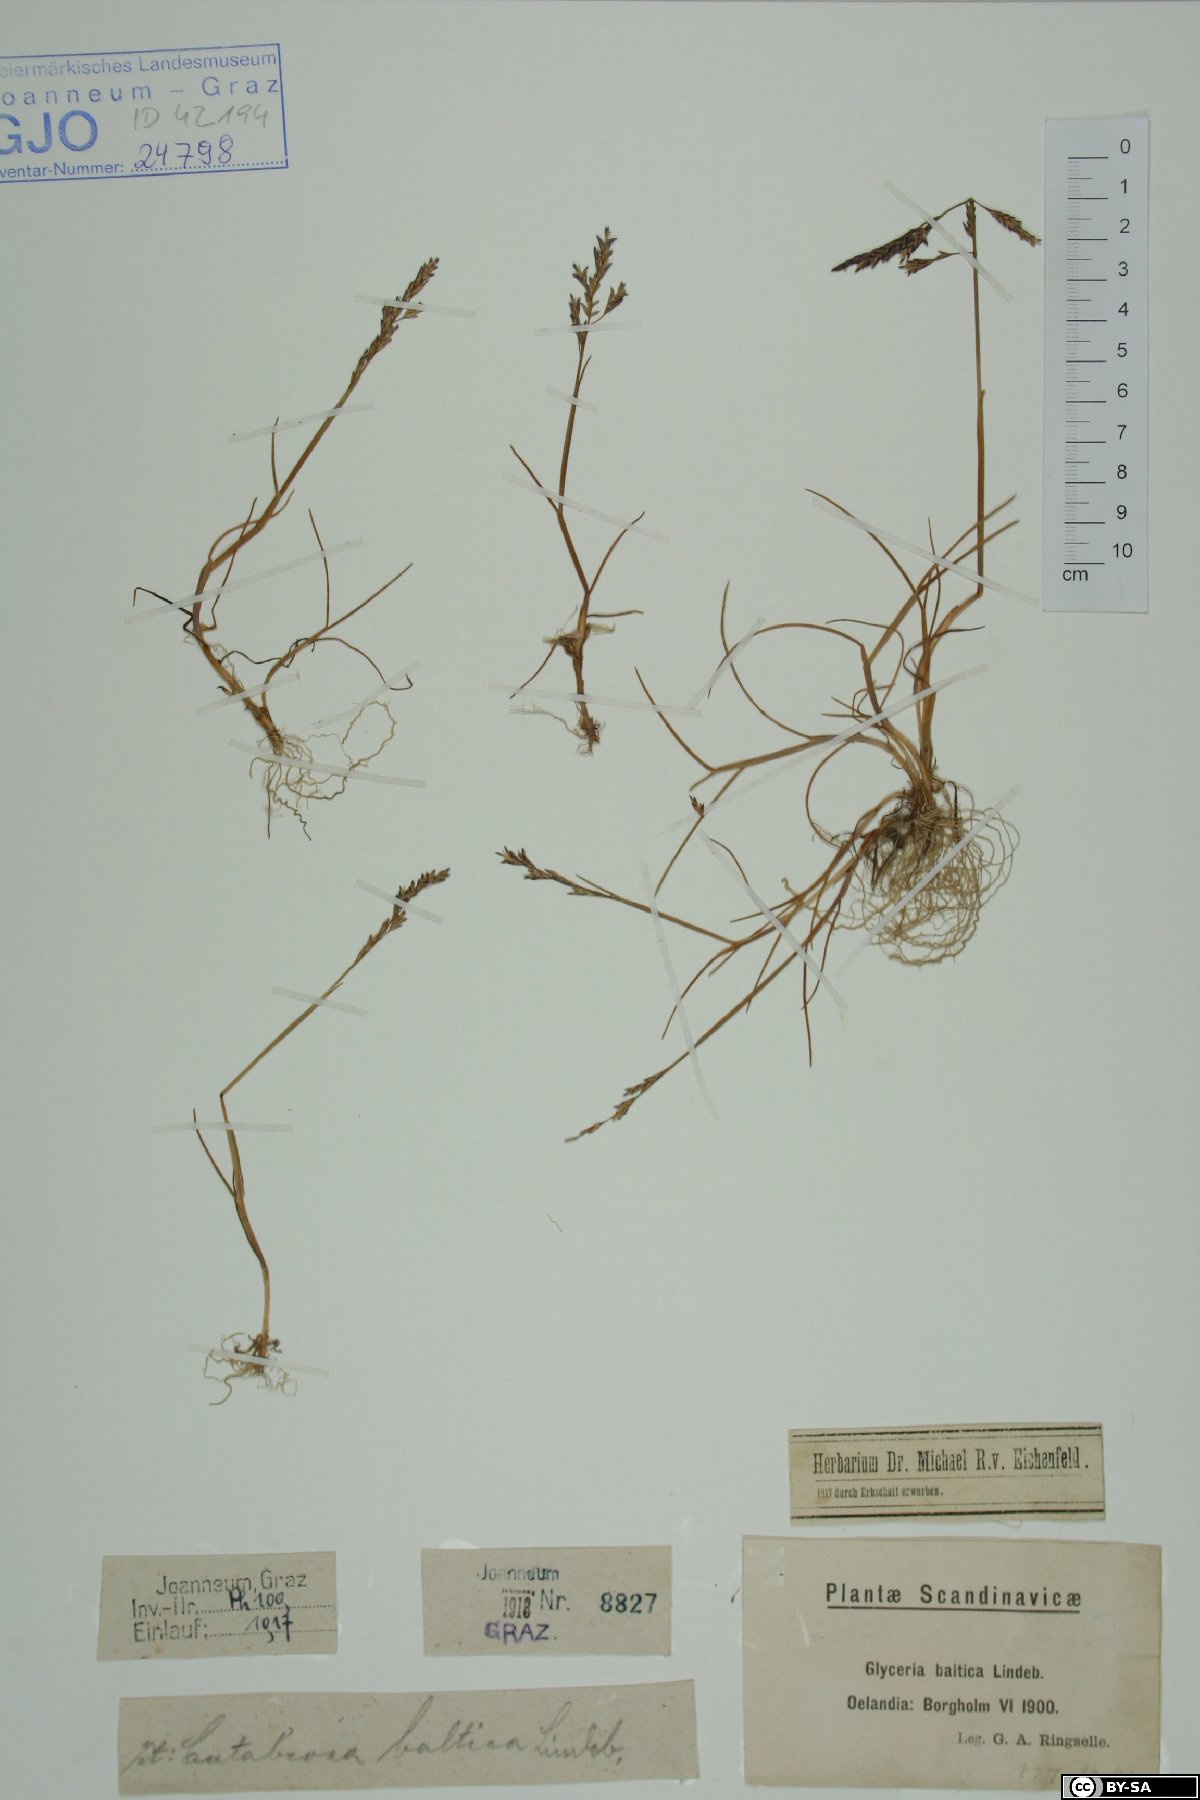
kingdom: Plantae
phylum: Tracheophyta
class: Liliopsida
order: Poales
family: Poaceae
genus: Puccinellia
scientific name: Puccinellia maritima
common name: Common saltmarsh grass
